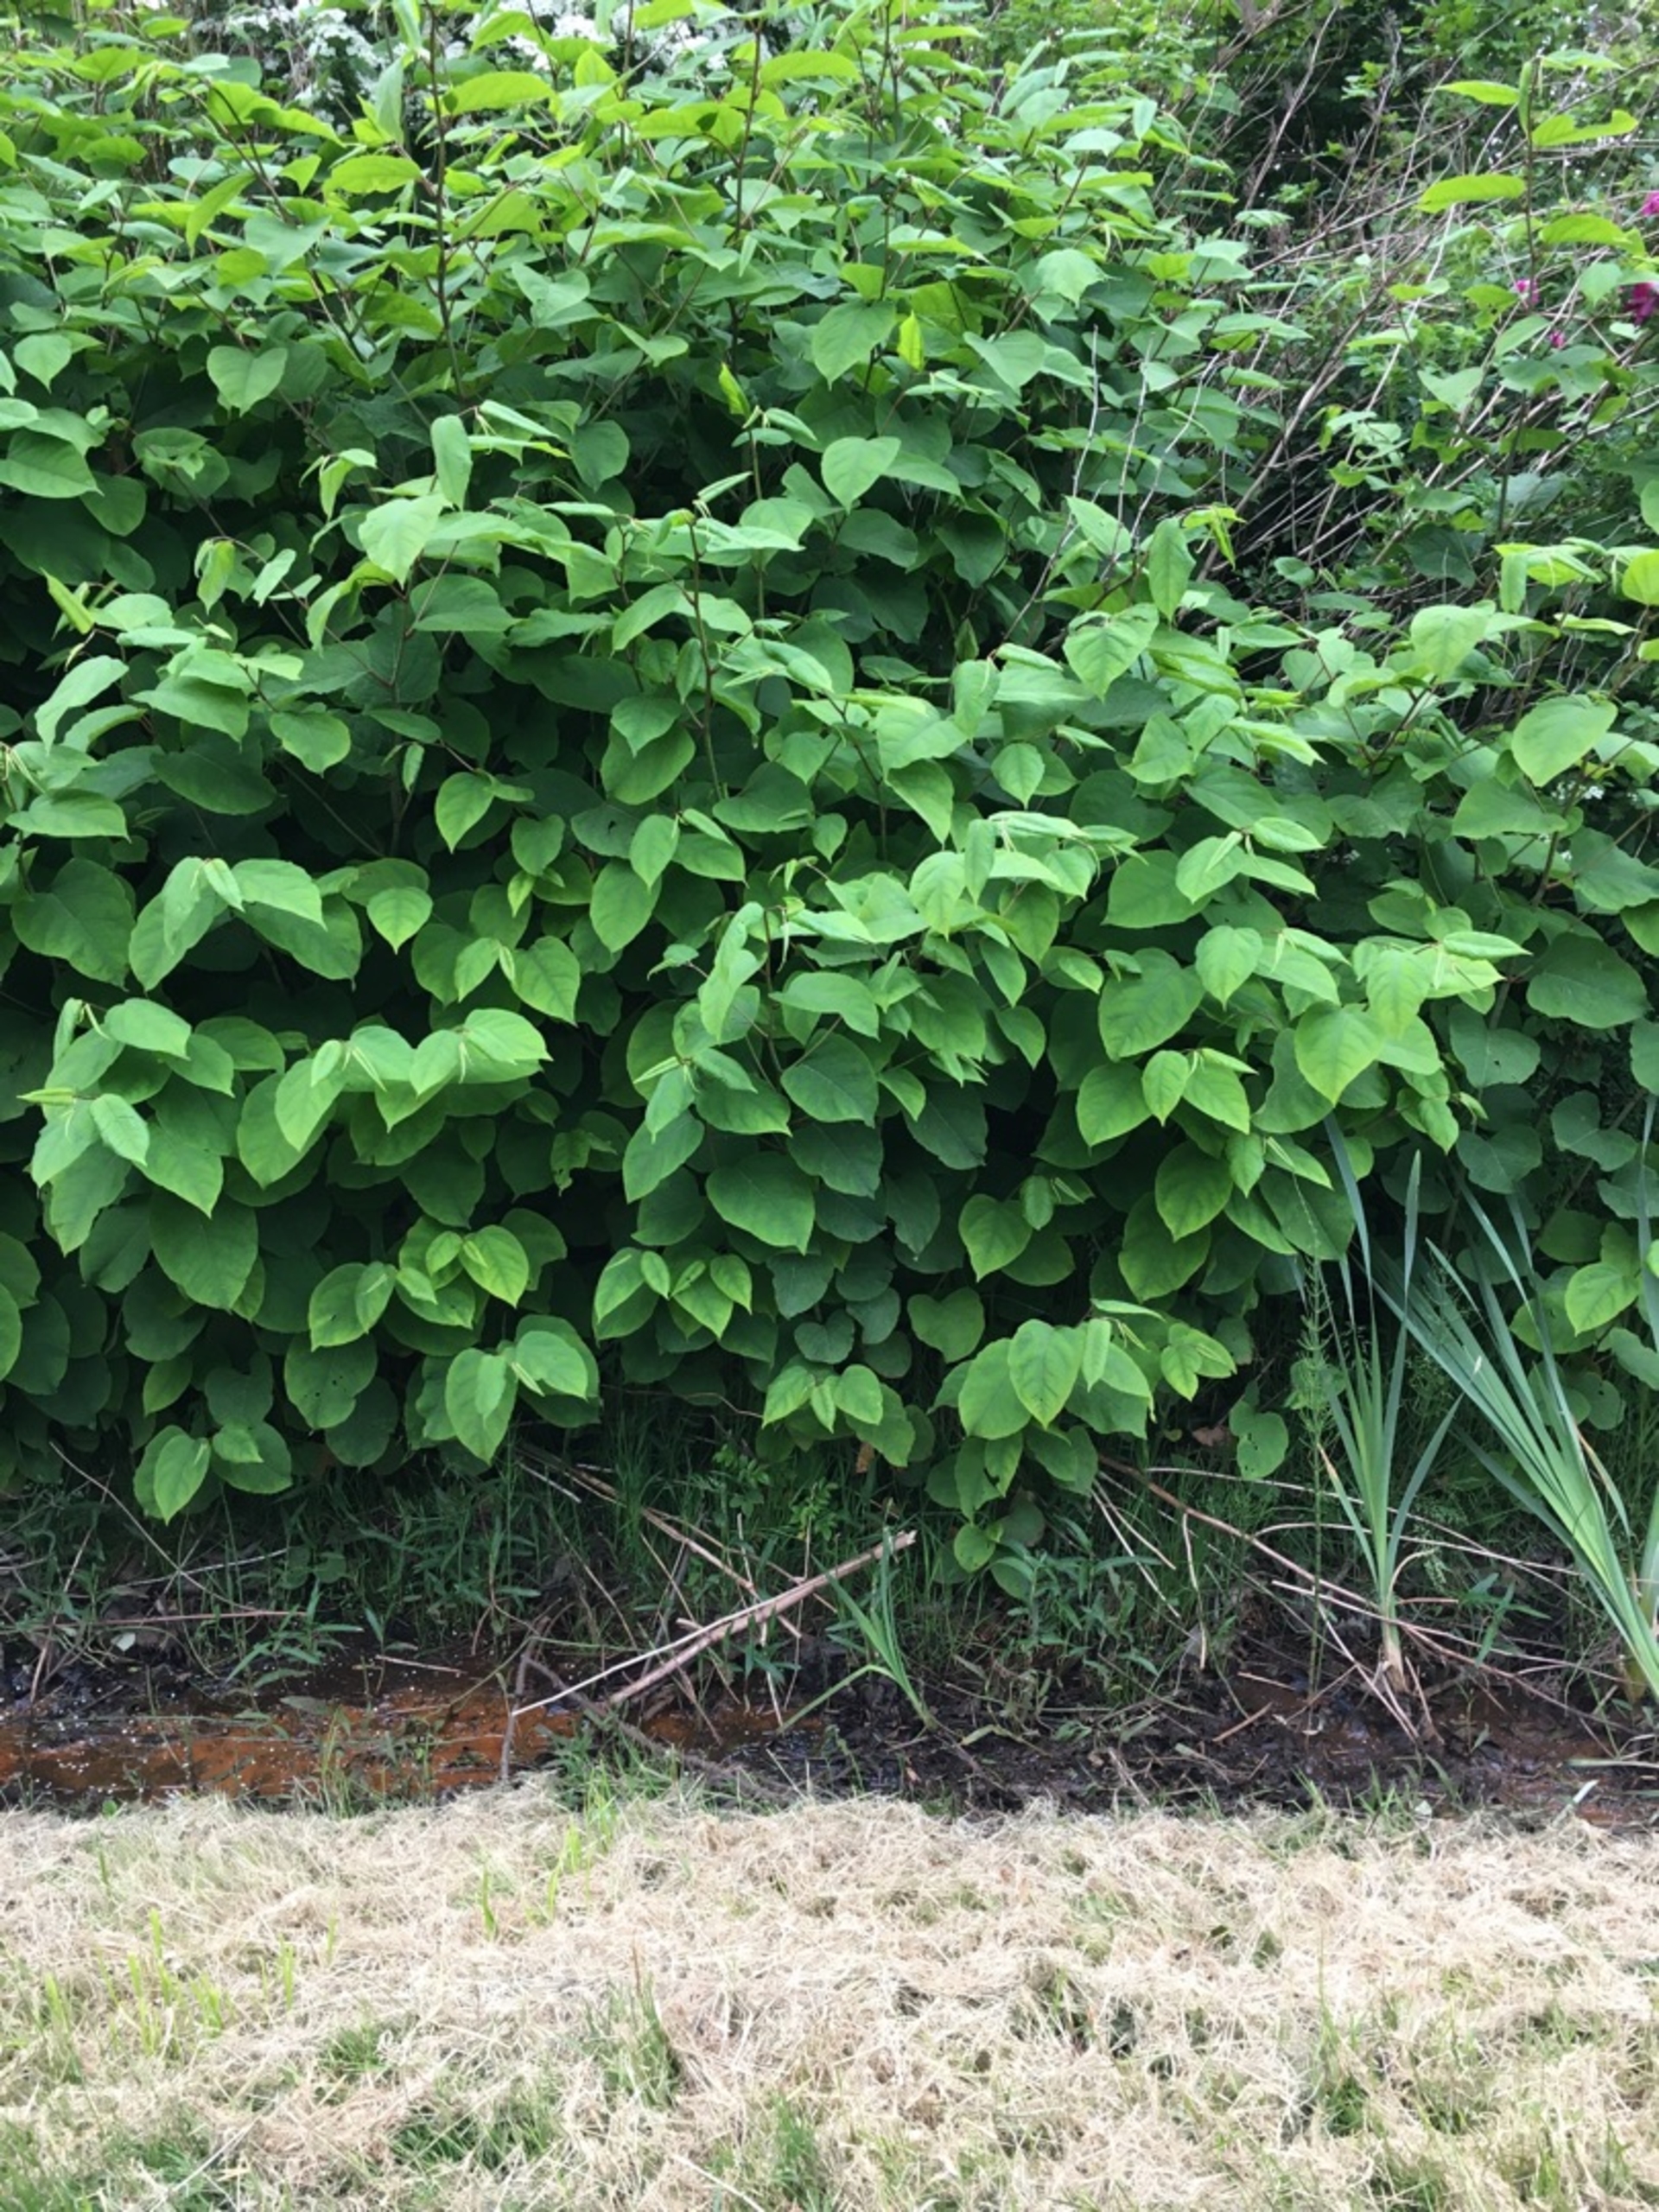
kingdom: Plantae
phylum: Tracheophyta
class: Magnoliopsida
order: Caryophyllales
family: Polygonaceae
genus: Reynoutria
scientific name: Reynoutria japonica
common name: Japan-pileurt
